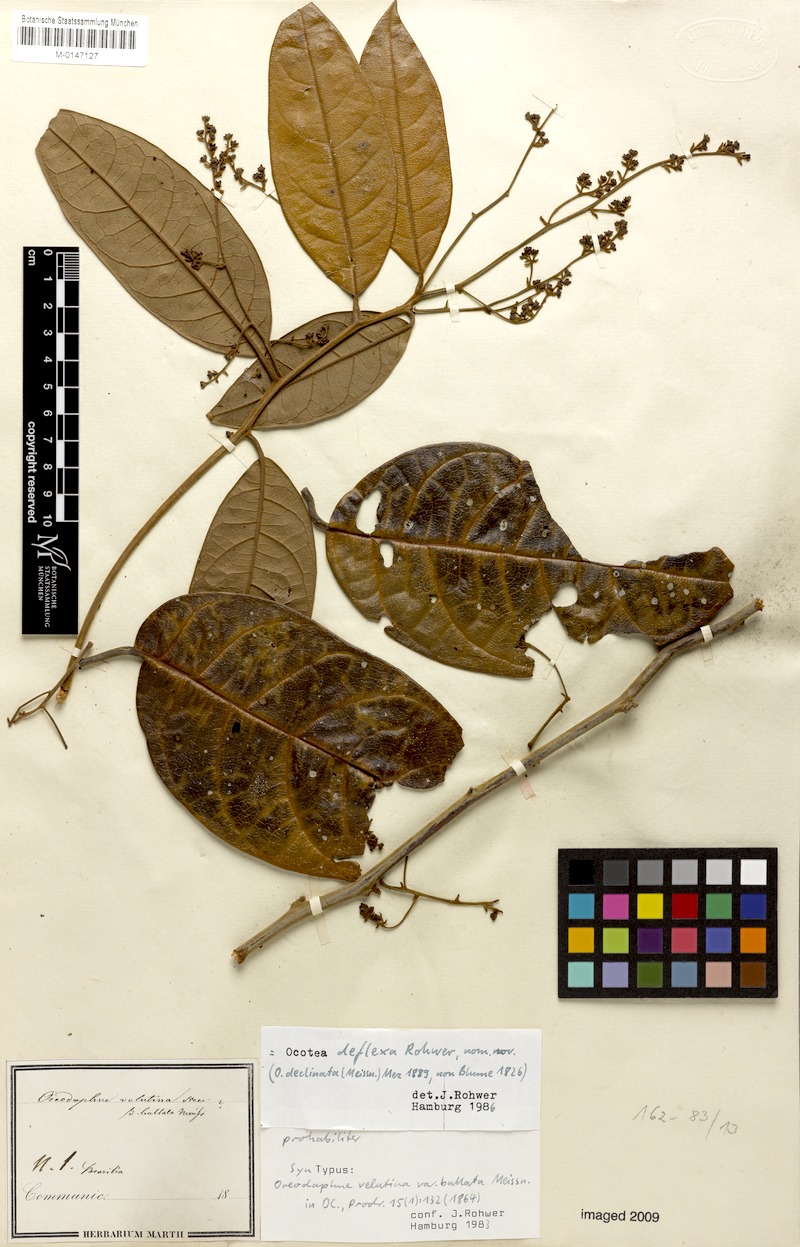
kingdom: Plantae
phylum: Tracheophyta
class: Magnoliopsida
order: Laurales
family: Lauraceae
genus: Ocotea
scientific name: Ocotea deflexa
